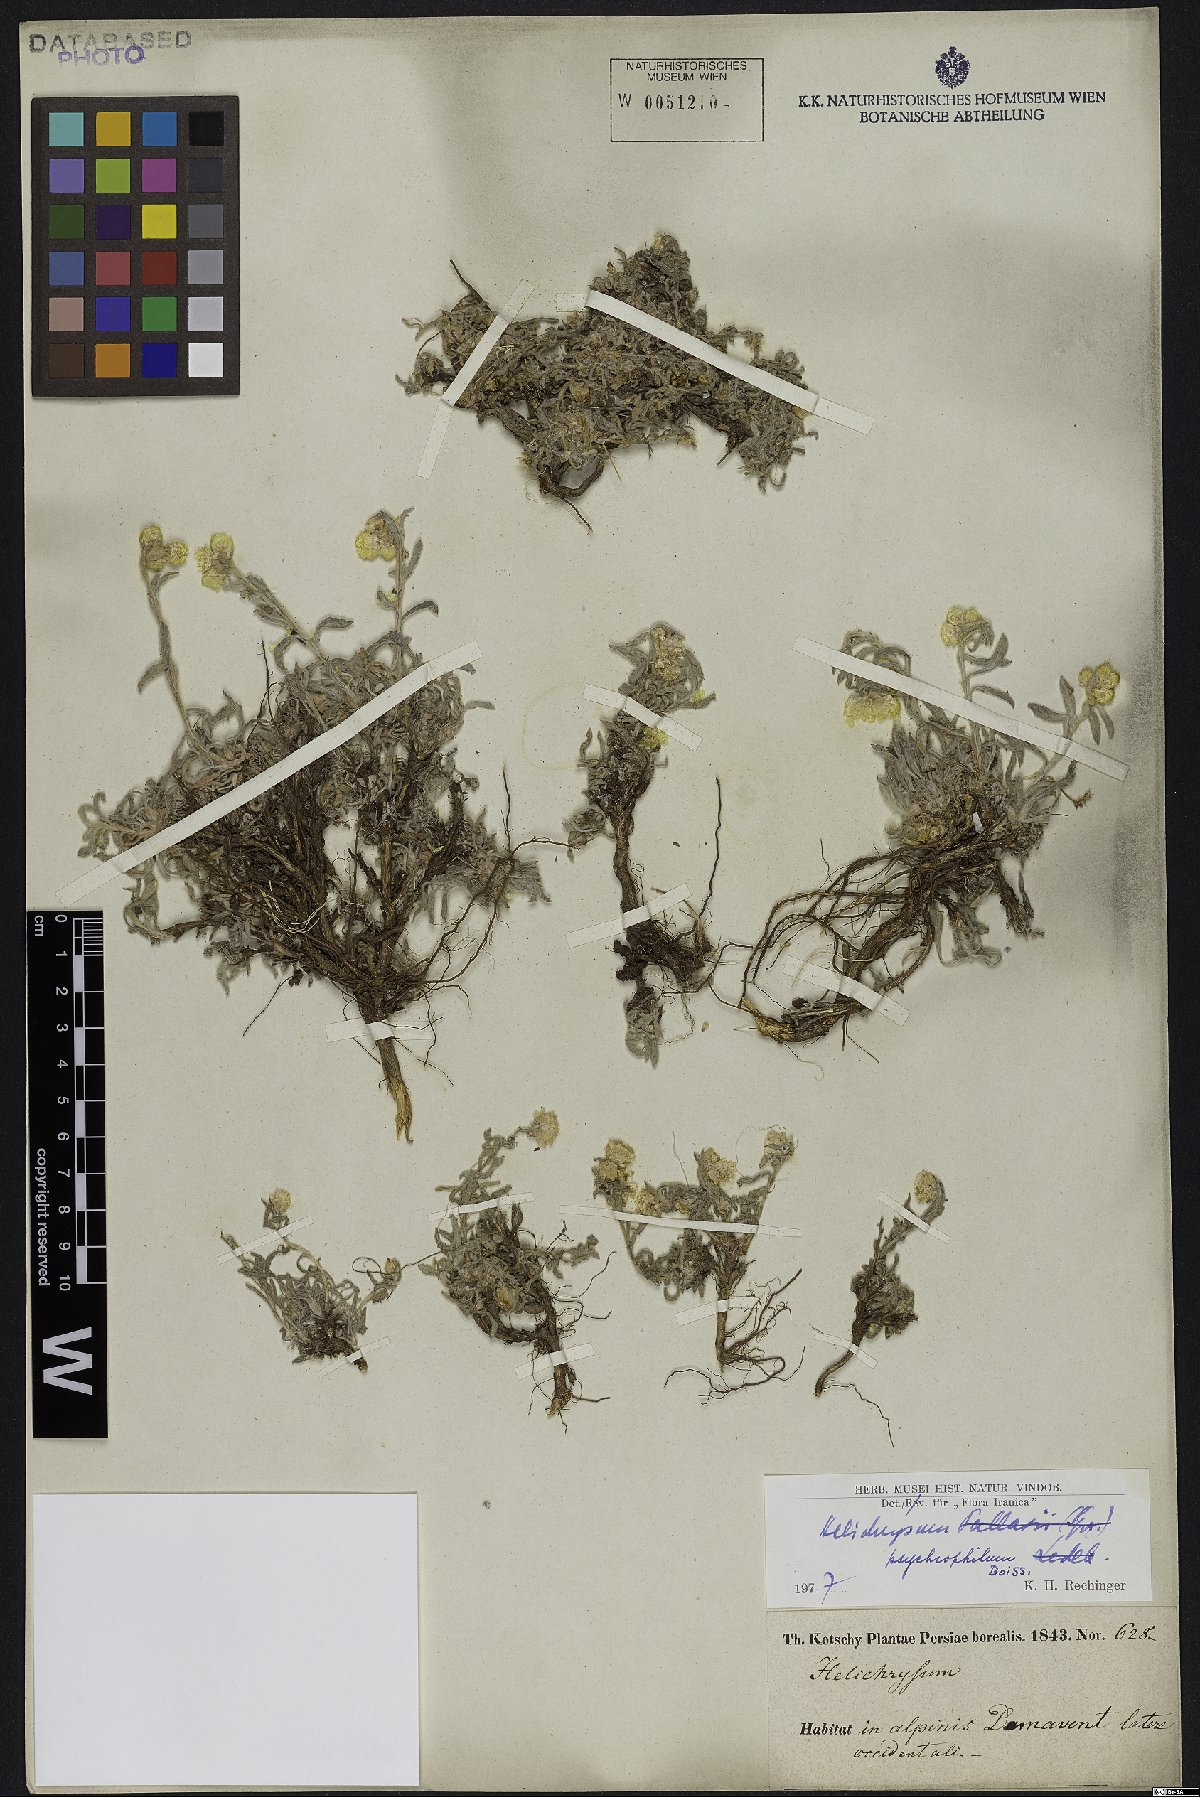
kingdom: Plantae
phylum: Tracheophyta
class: Magnoliopsida
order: Asterales
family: Asteraceae
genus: Helichrysum
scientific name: Helichrysum psychrophilum
